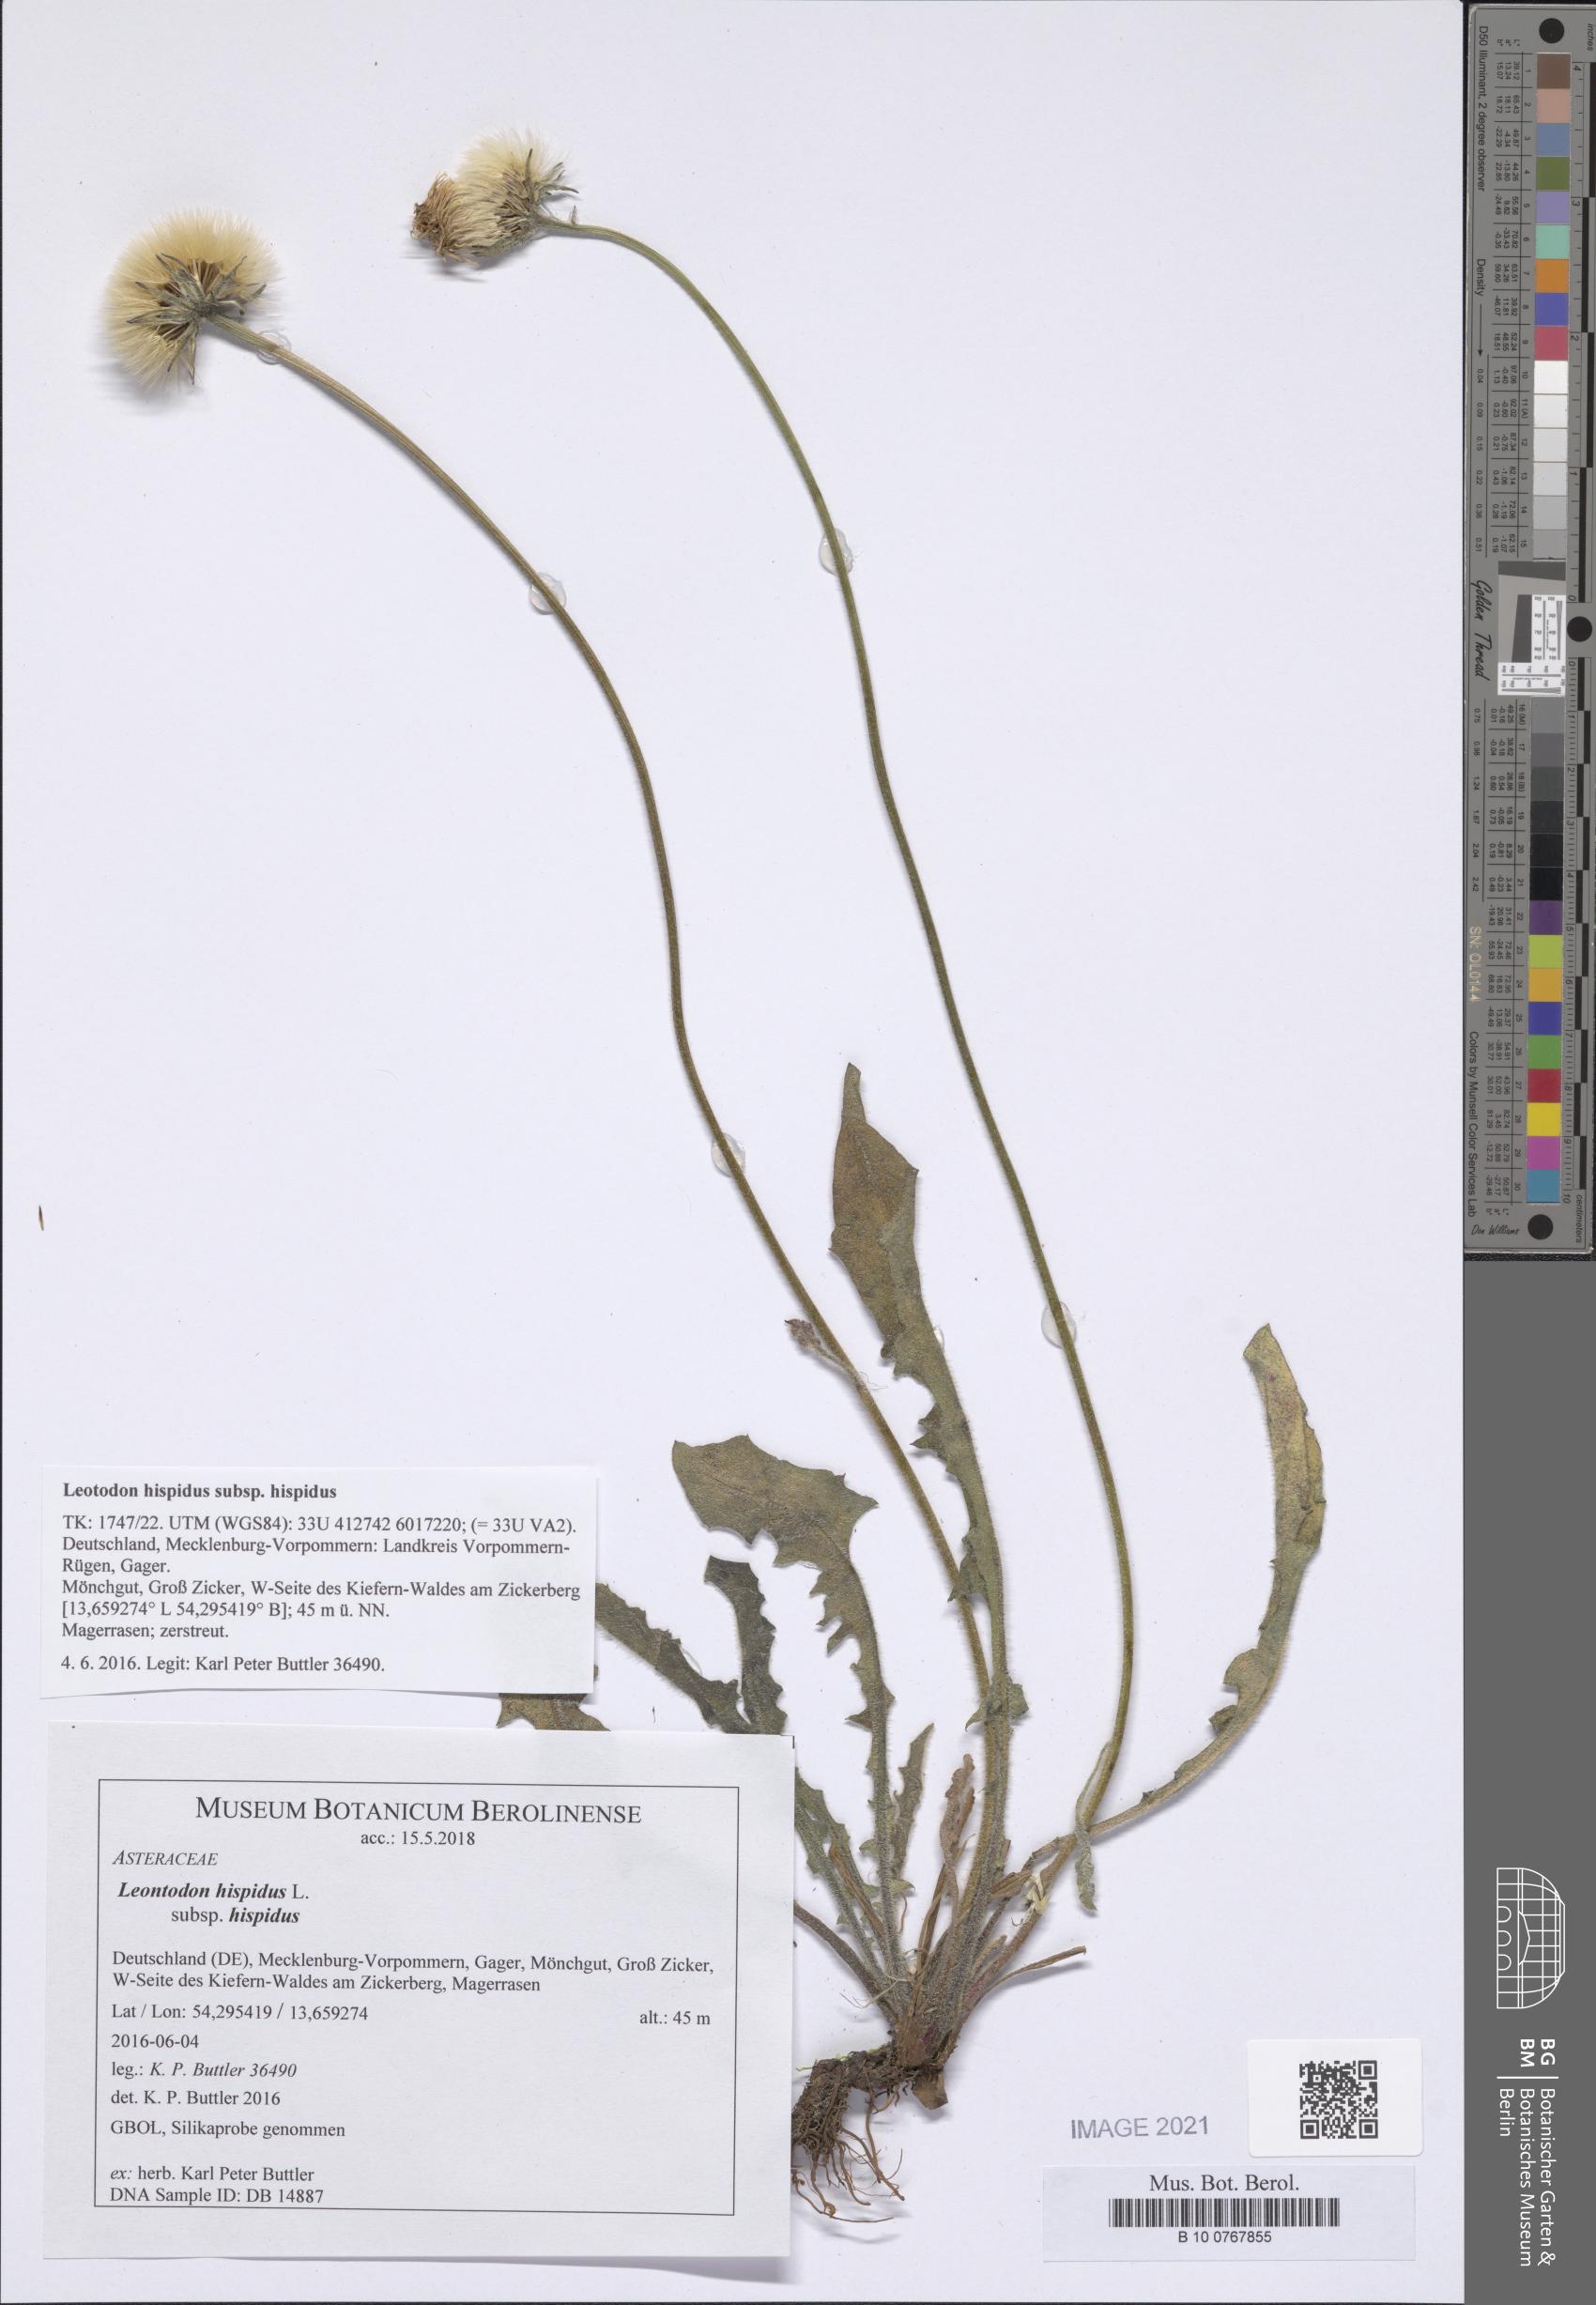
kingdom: Plantae
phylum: Tracheophyta
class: Magnoliopsida
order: Asterales
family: Asteraceae
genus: Leontodon
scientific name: Leontodon hispidus
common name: Rough hawkbit
